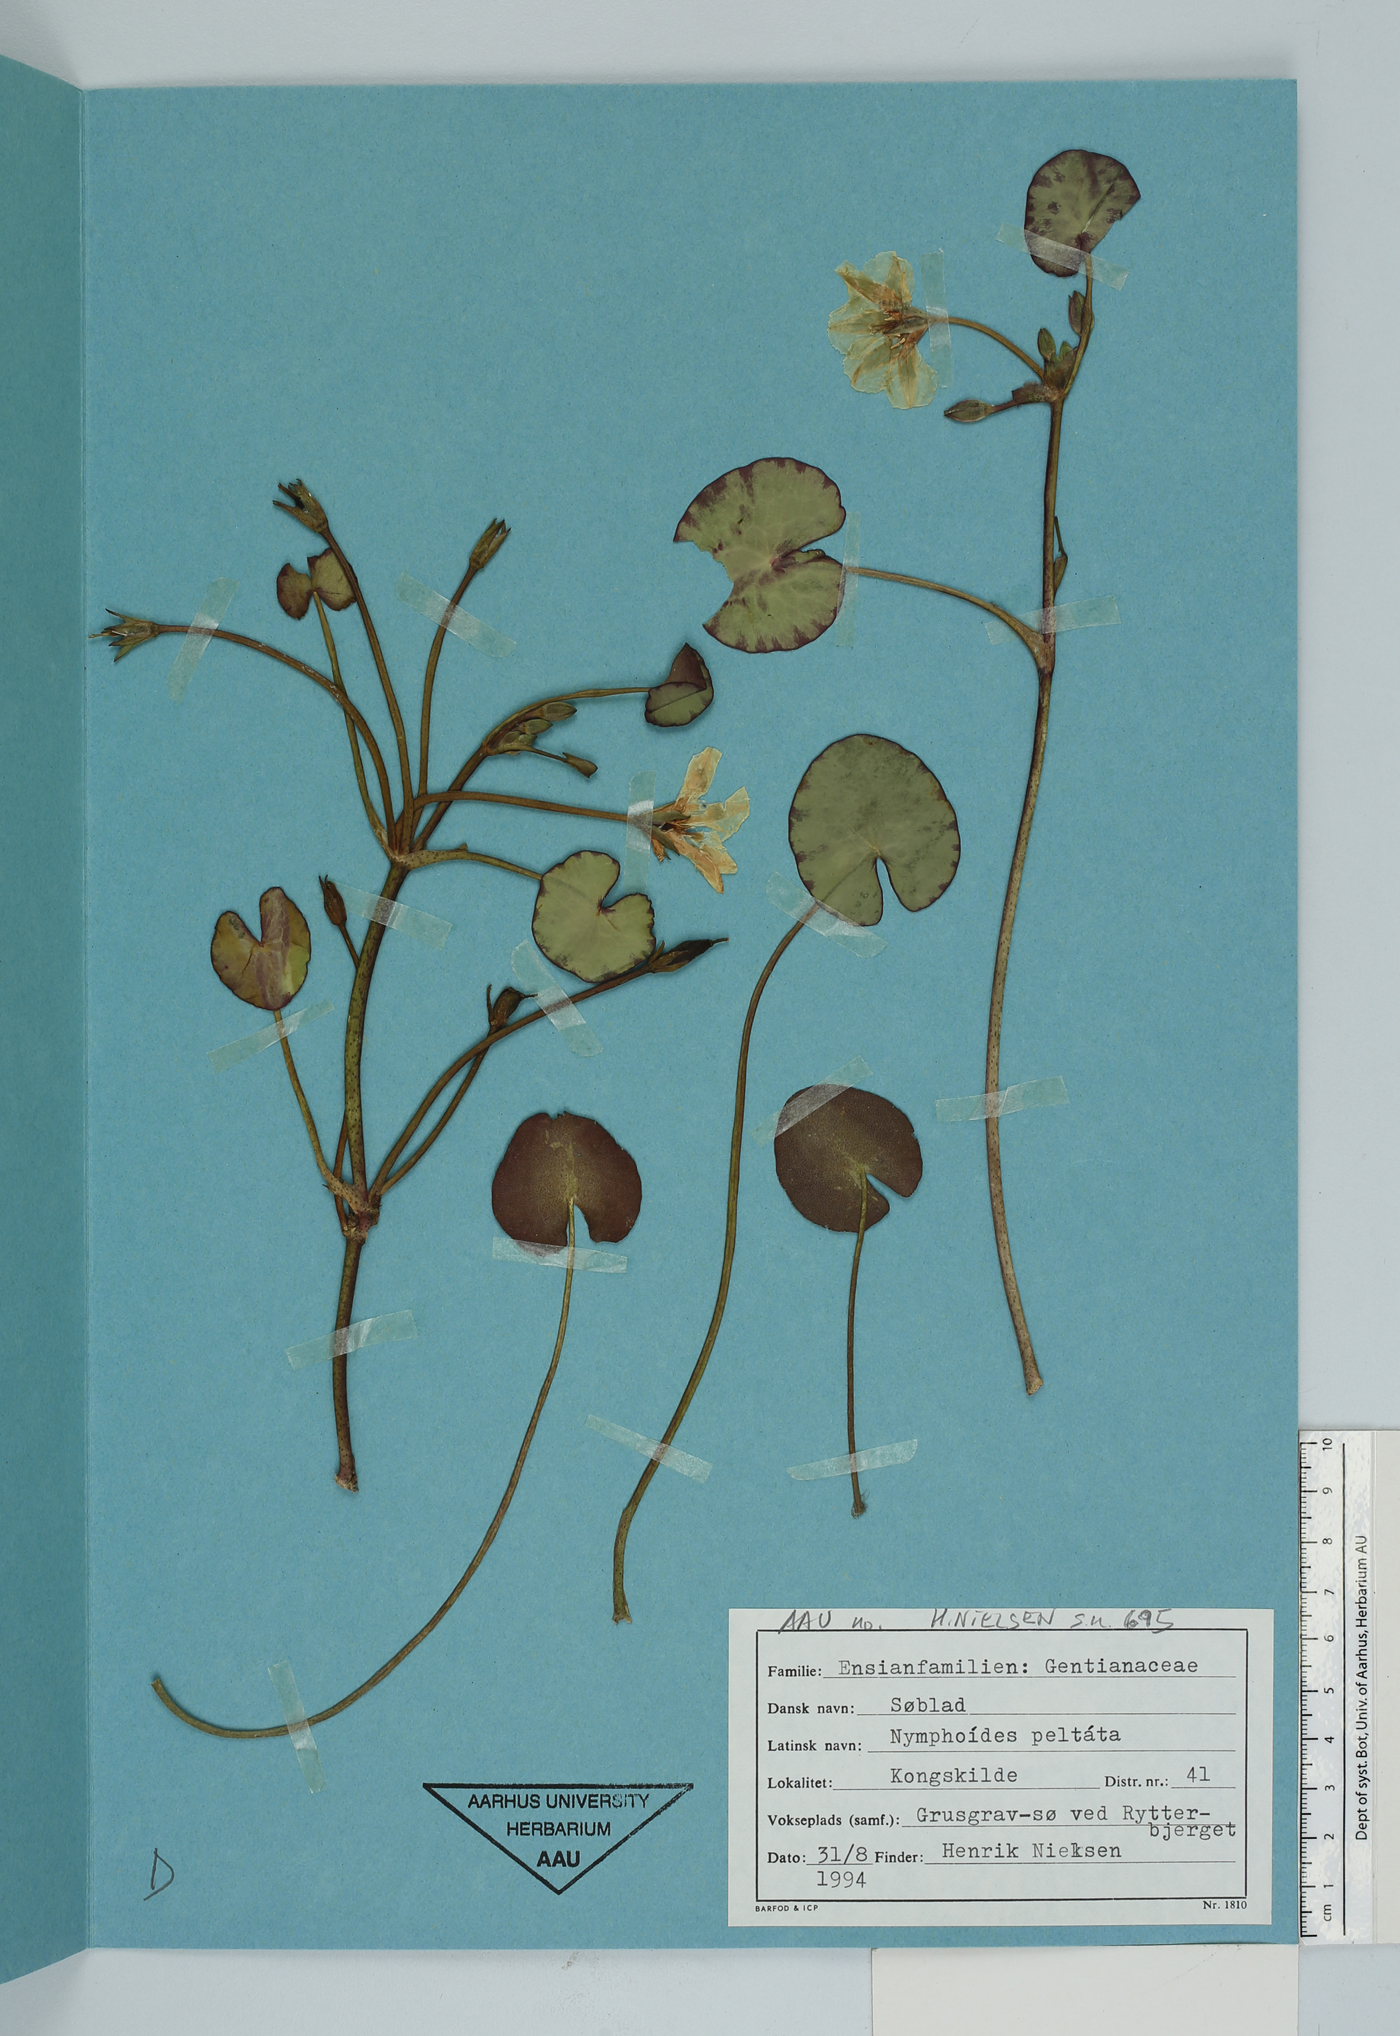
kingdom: Plantae
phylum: Tracheophyta
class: Magnoliopsida
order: Asterales
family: Menyanthaceae
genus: Nymphoides
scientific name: Nymphoides peltata
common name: Fringed water-lily
